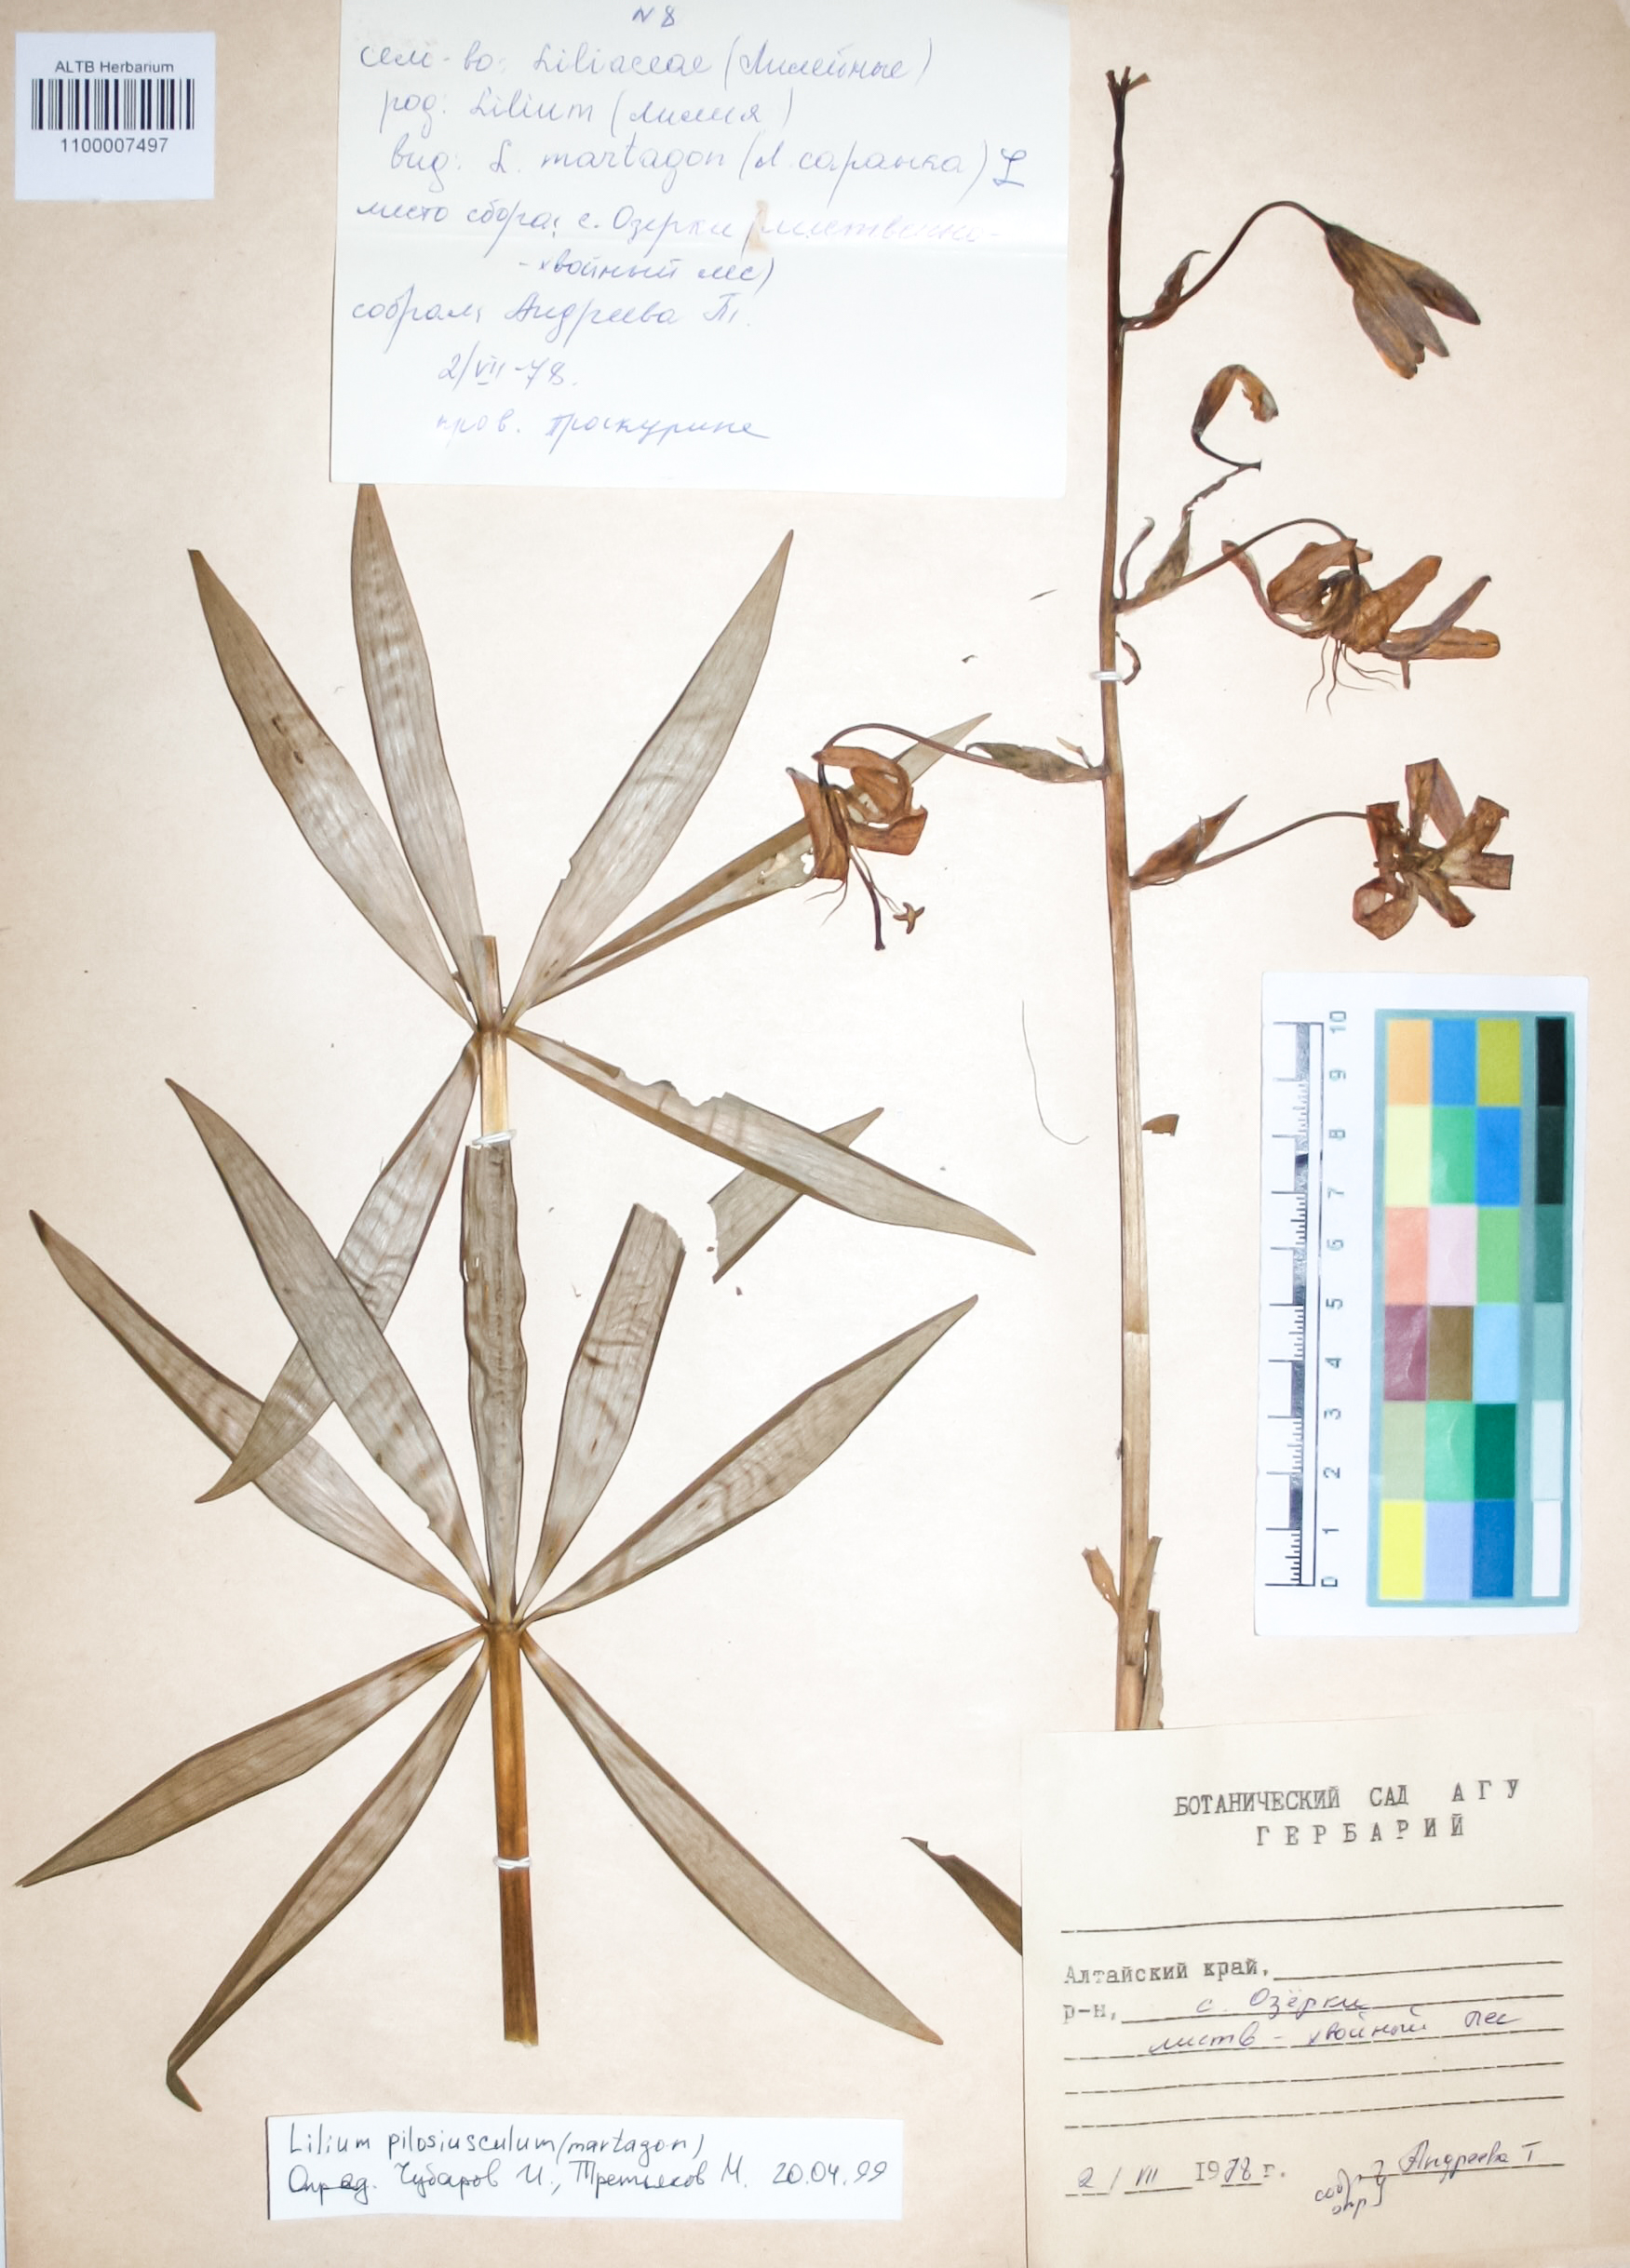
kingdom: Plantae
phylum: Tracheophyta
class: Liliopsida
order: Liliales
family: Liliaceae
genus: Lilium
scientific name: Lilium martagon
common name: Martagon lily
